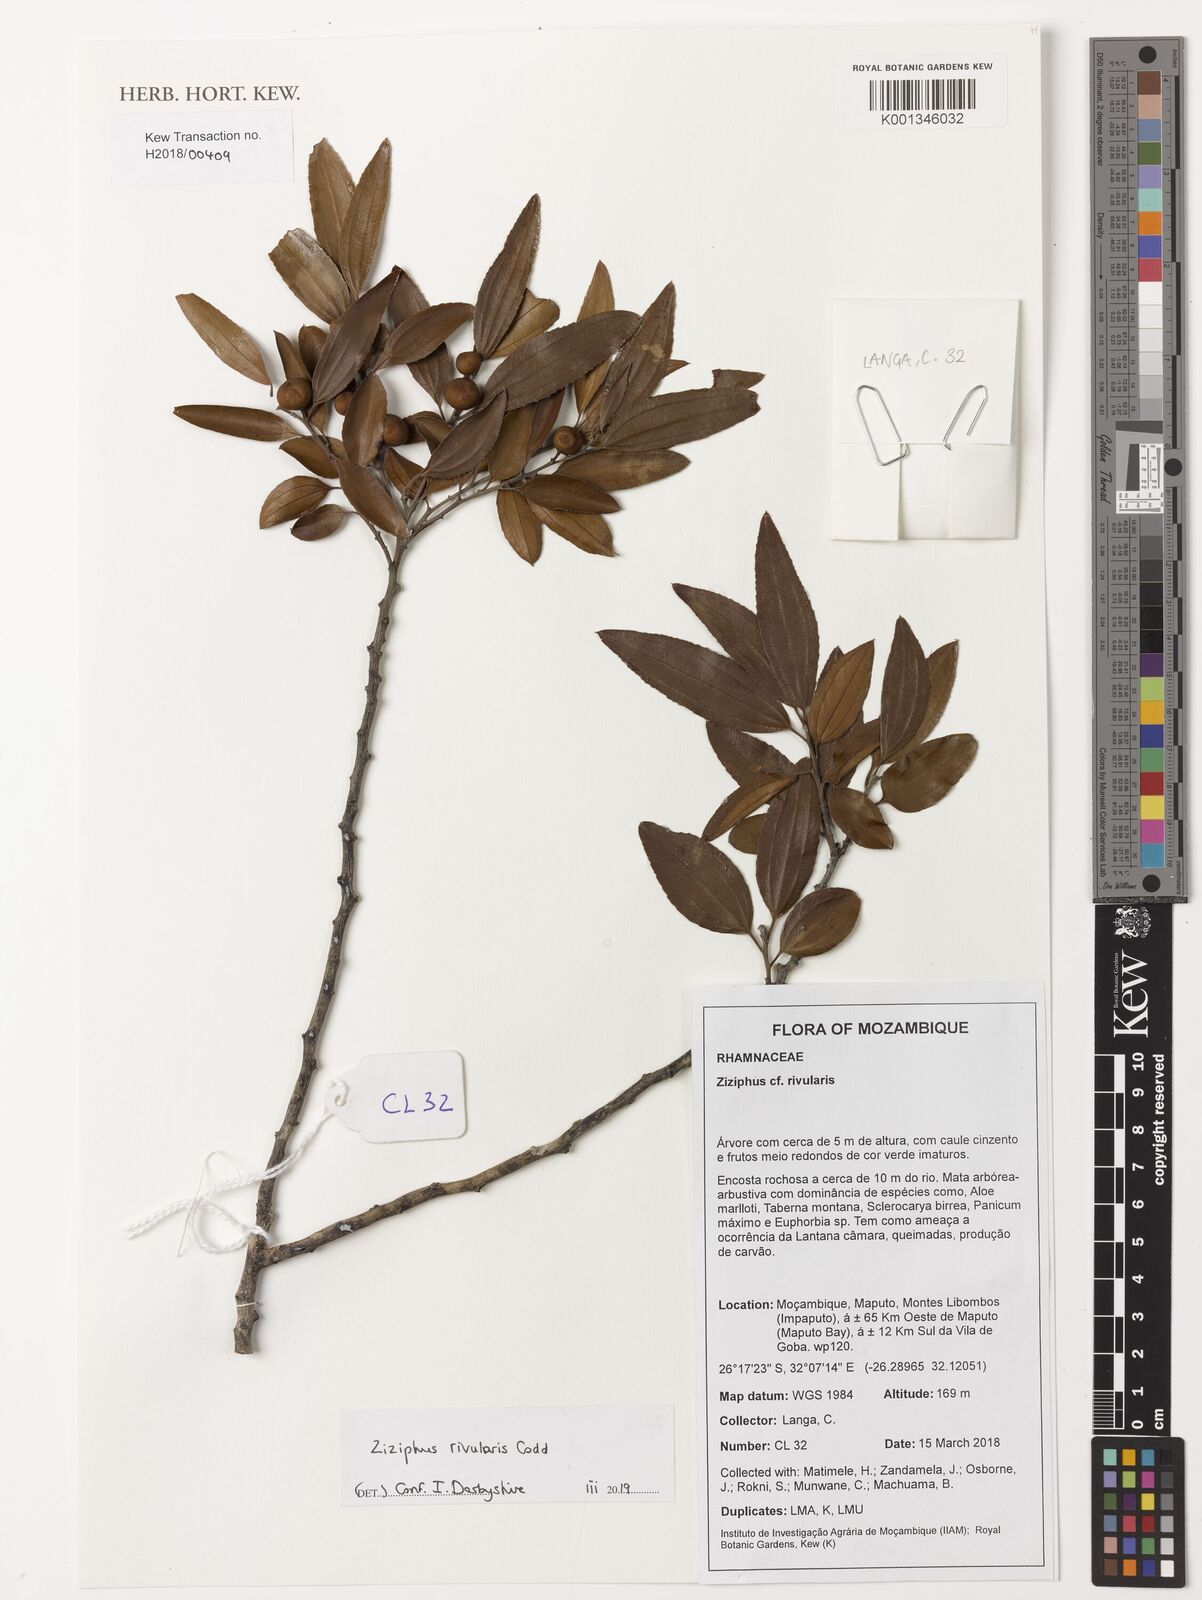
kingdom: Plantae
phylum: Tracheophyta
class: Magnoliopsida
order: Rosales
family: Rhamnaceae
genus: Ziziphus
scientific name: Ziziphus rivularis
